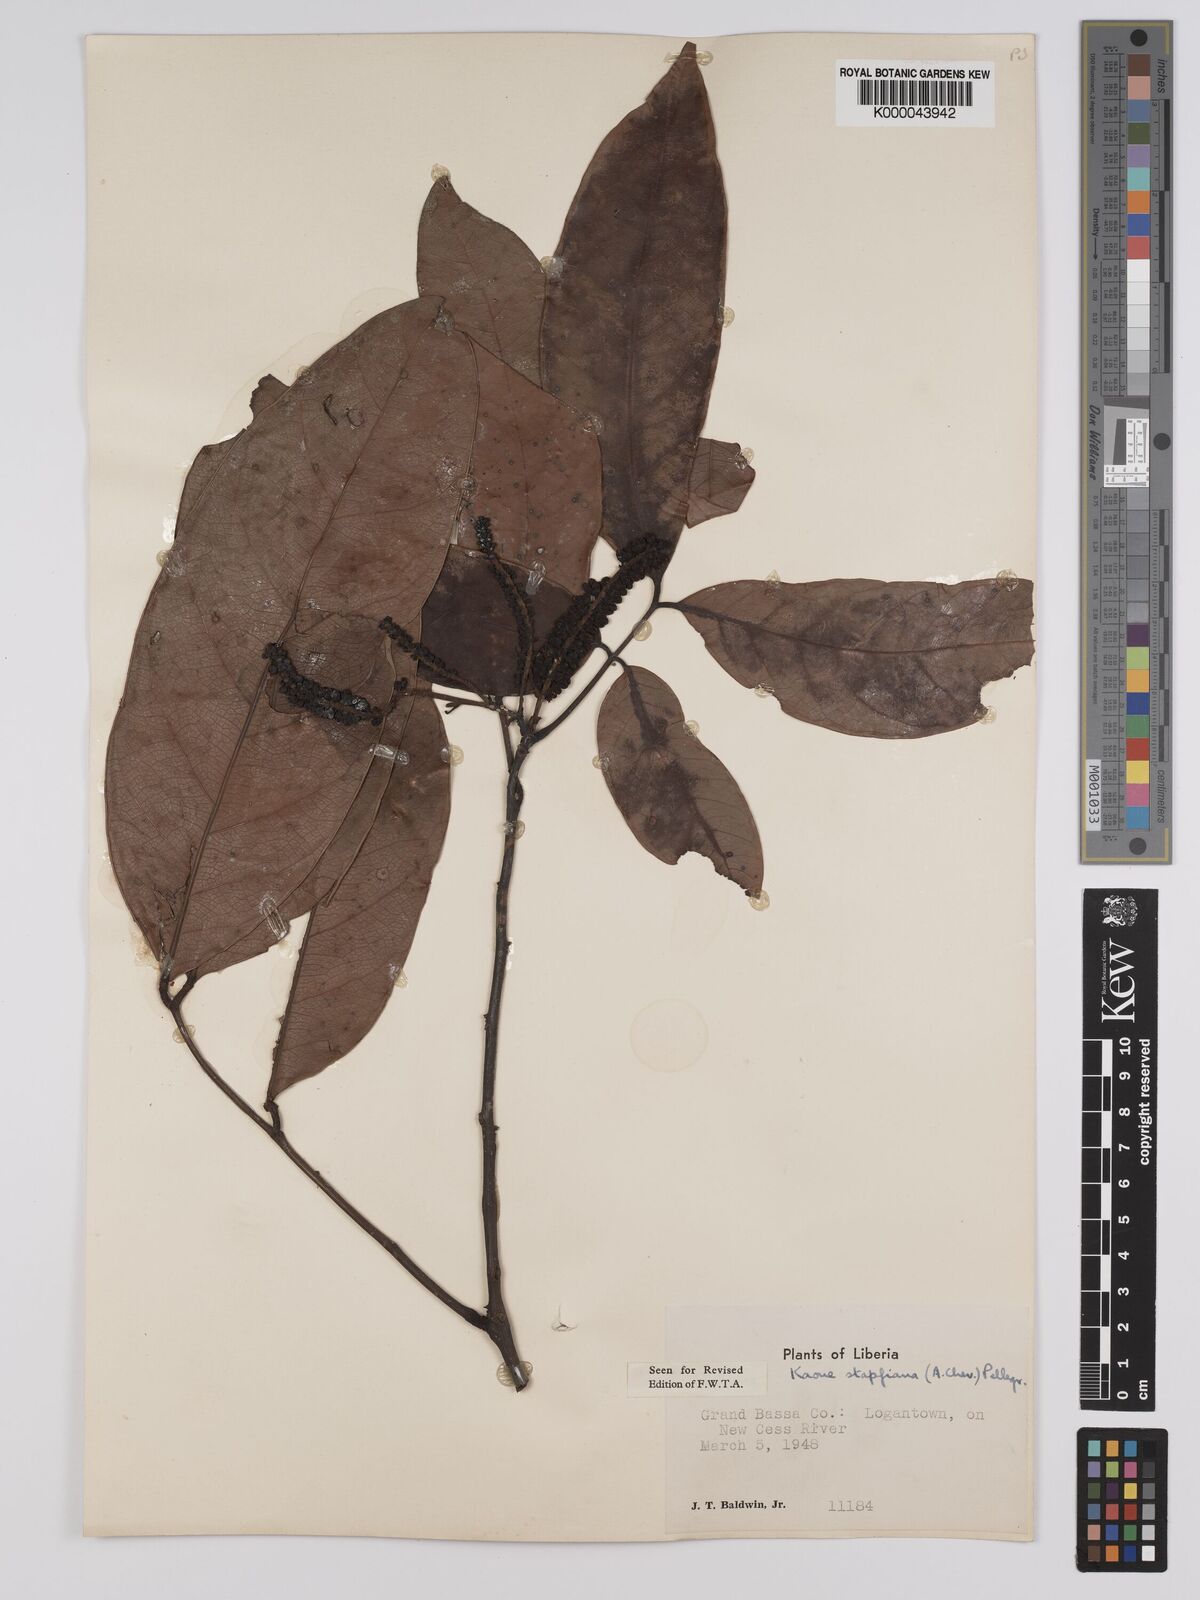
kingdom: Plantae
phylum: Tracheophyta
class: Magnoliopsida
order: Fabales
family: Fabaceae
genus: Stachyothyrsus
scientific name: Stachyothyrsus
